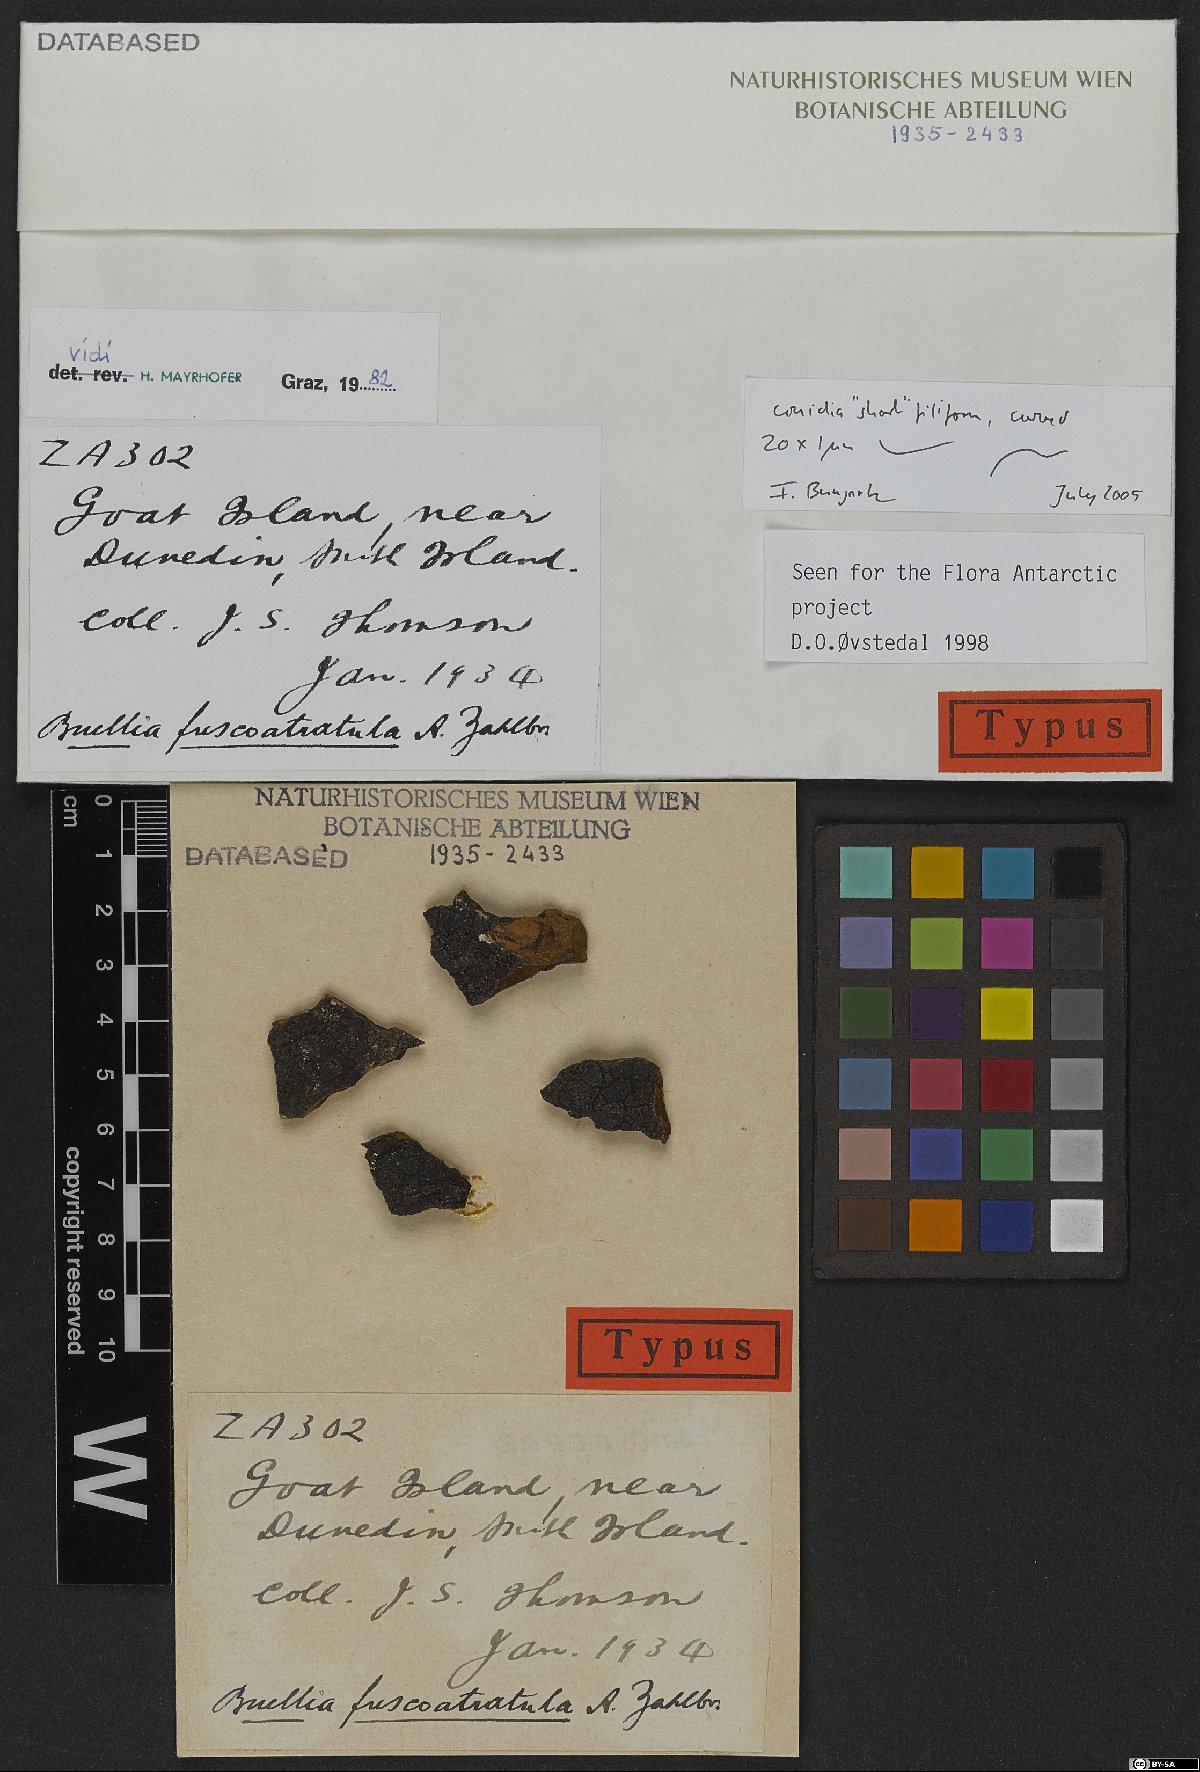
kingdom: Fungi
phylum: Ascomycota
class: Lecanoromycetes
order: Caliciales
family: Caliciaceae
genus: Amandinea
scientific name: Amandinea fuscoatratula
